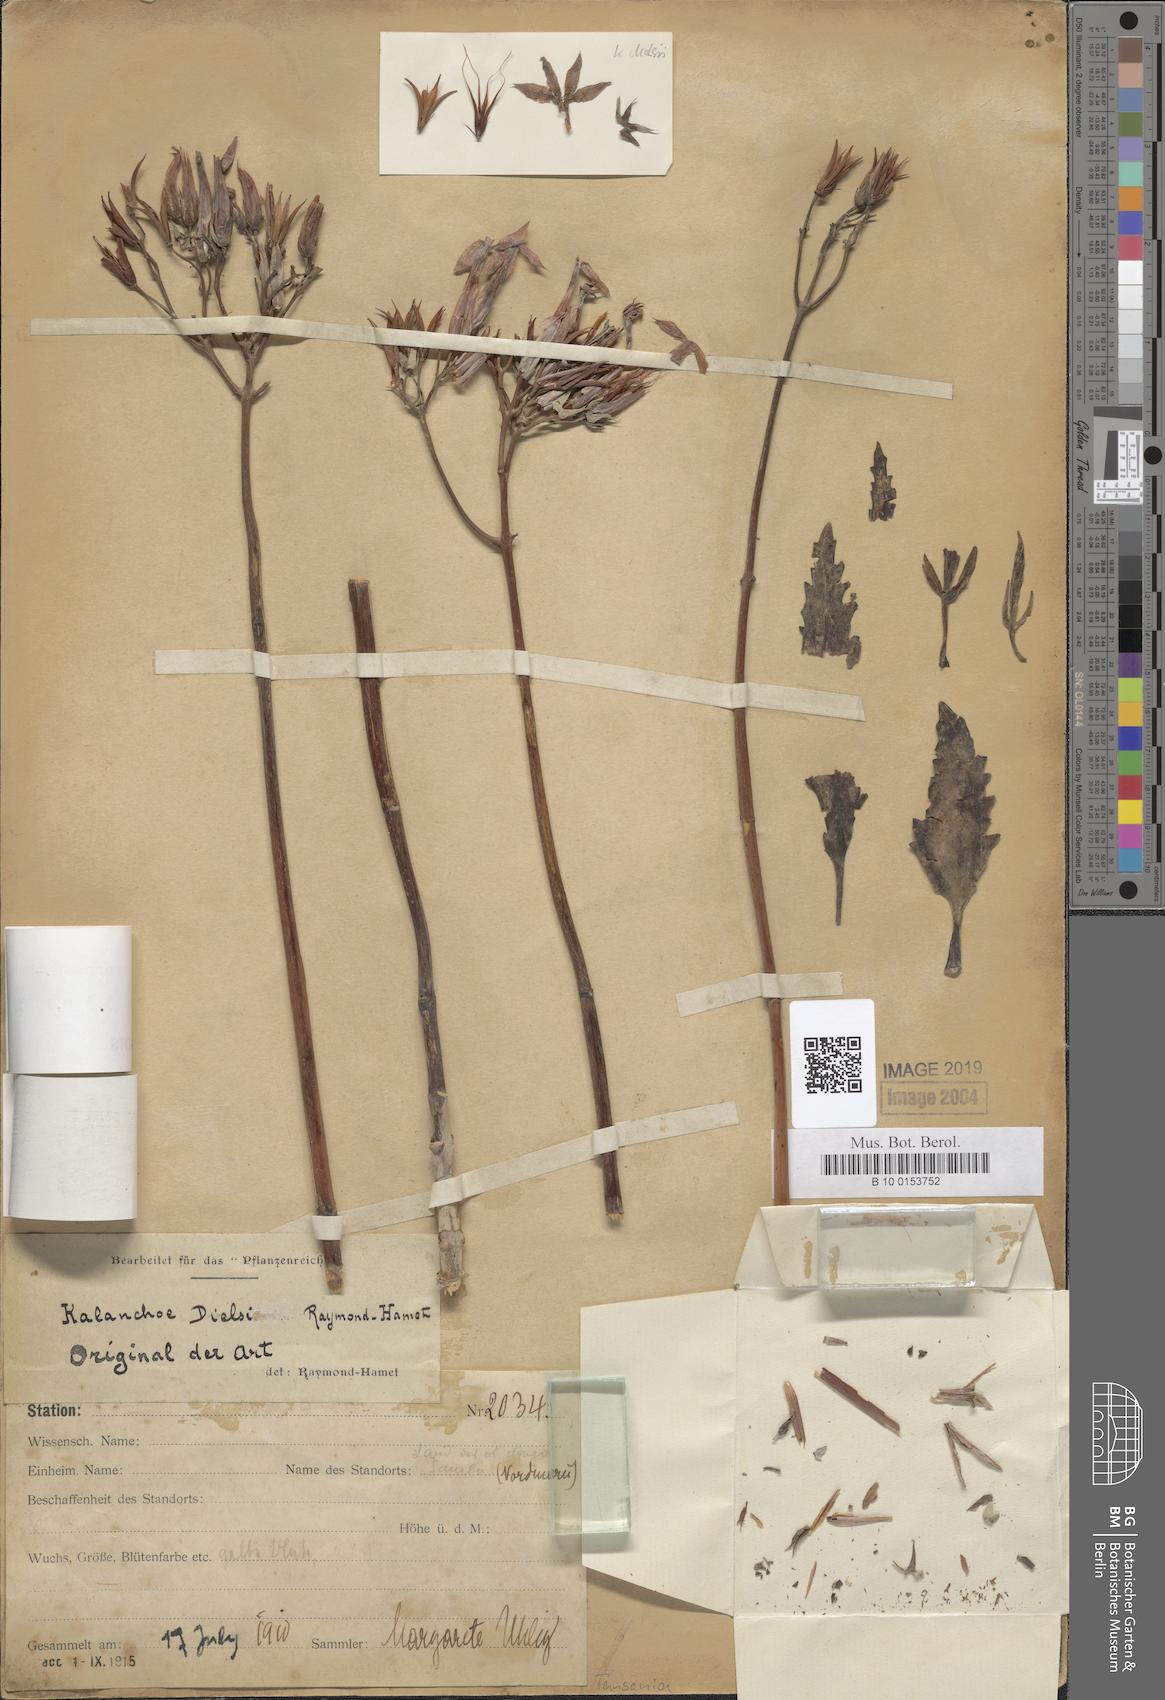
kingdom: Plantae
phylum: Tracheophyta
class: Magnoliopsida
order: Saxifragales
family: Crassulaceae
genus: Kalanchoe
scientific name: Kalanchoe germanae
